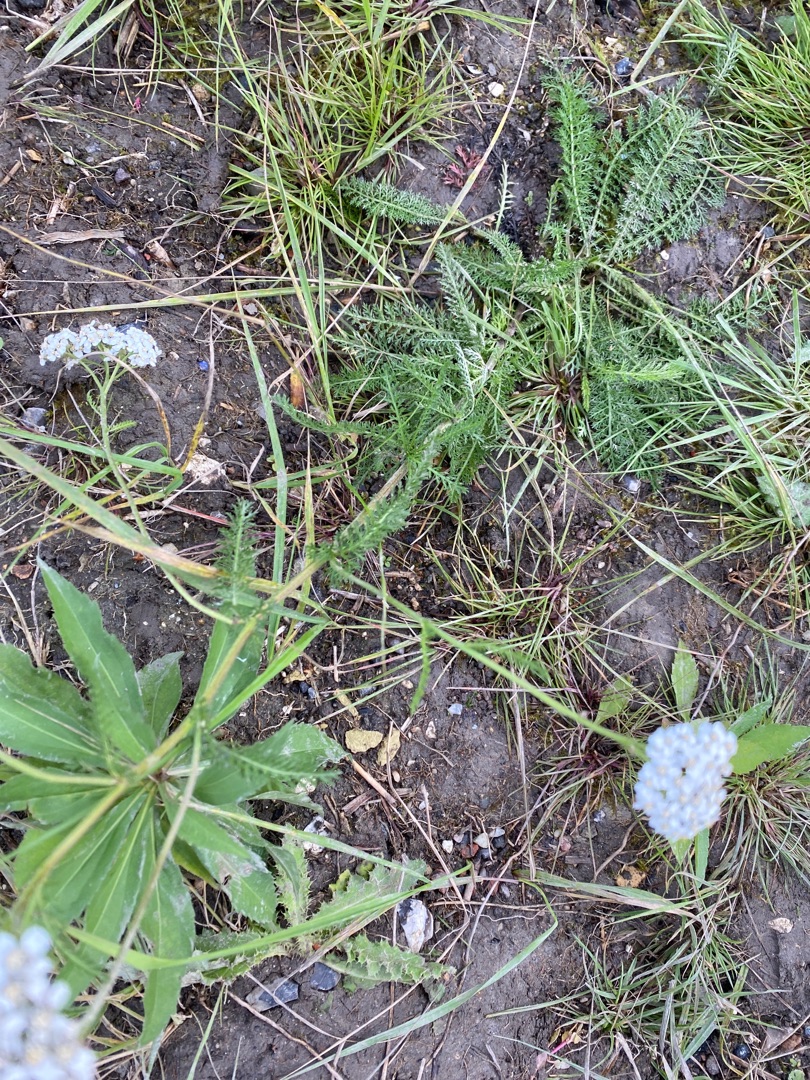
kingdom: Plantae
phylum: Tracheophyta
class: Magnoliopsida
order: Asterales
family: Asteraceae
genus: Achillea
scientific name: Achillea millefolium
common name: Almindelig røllike
